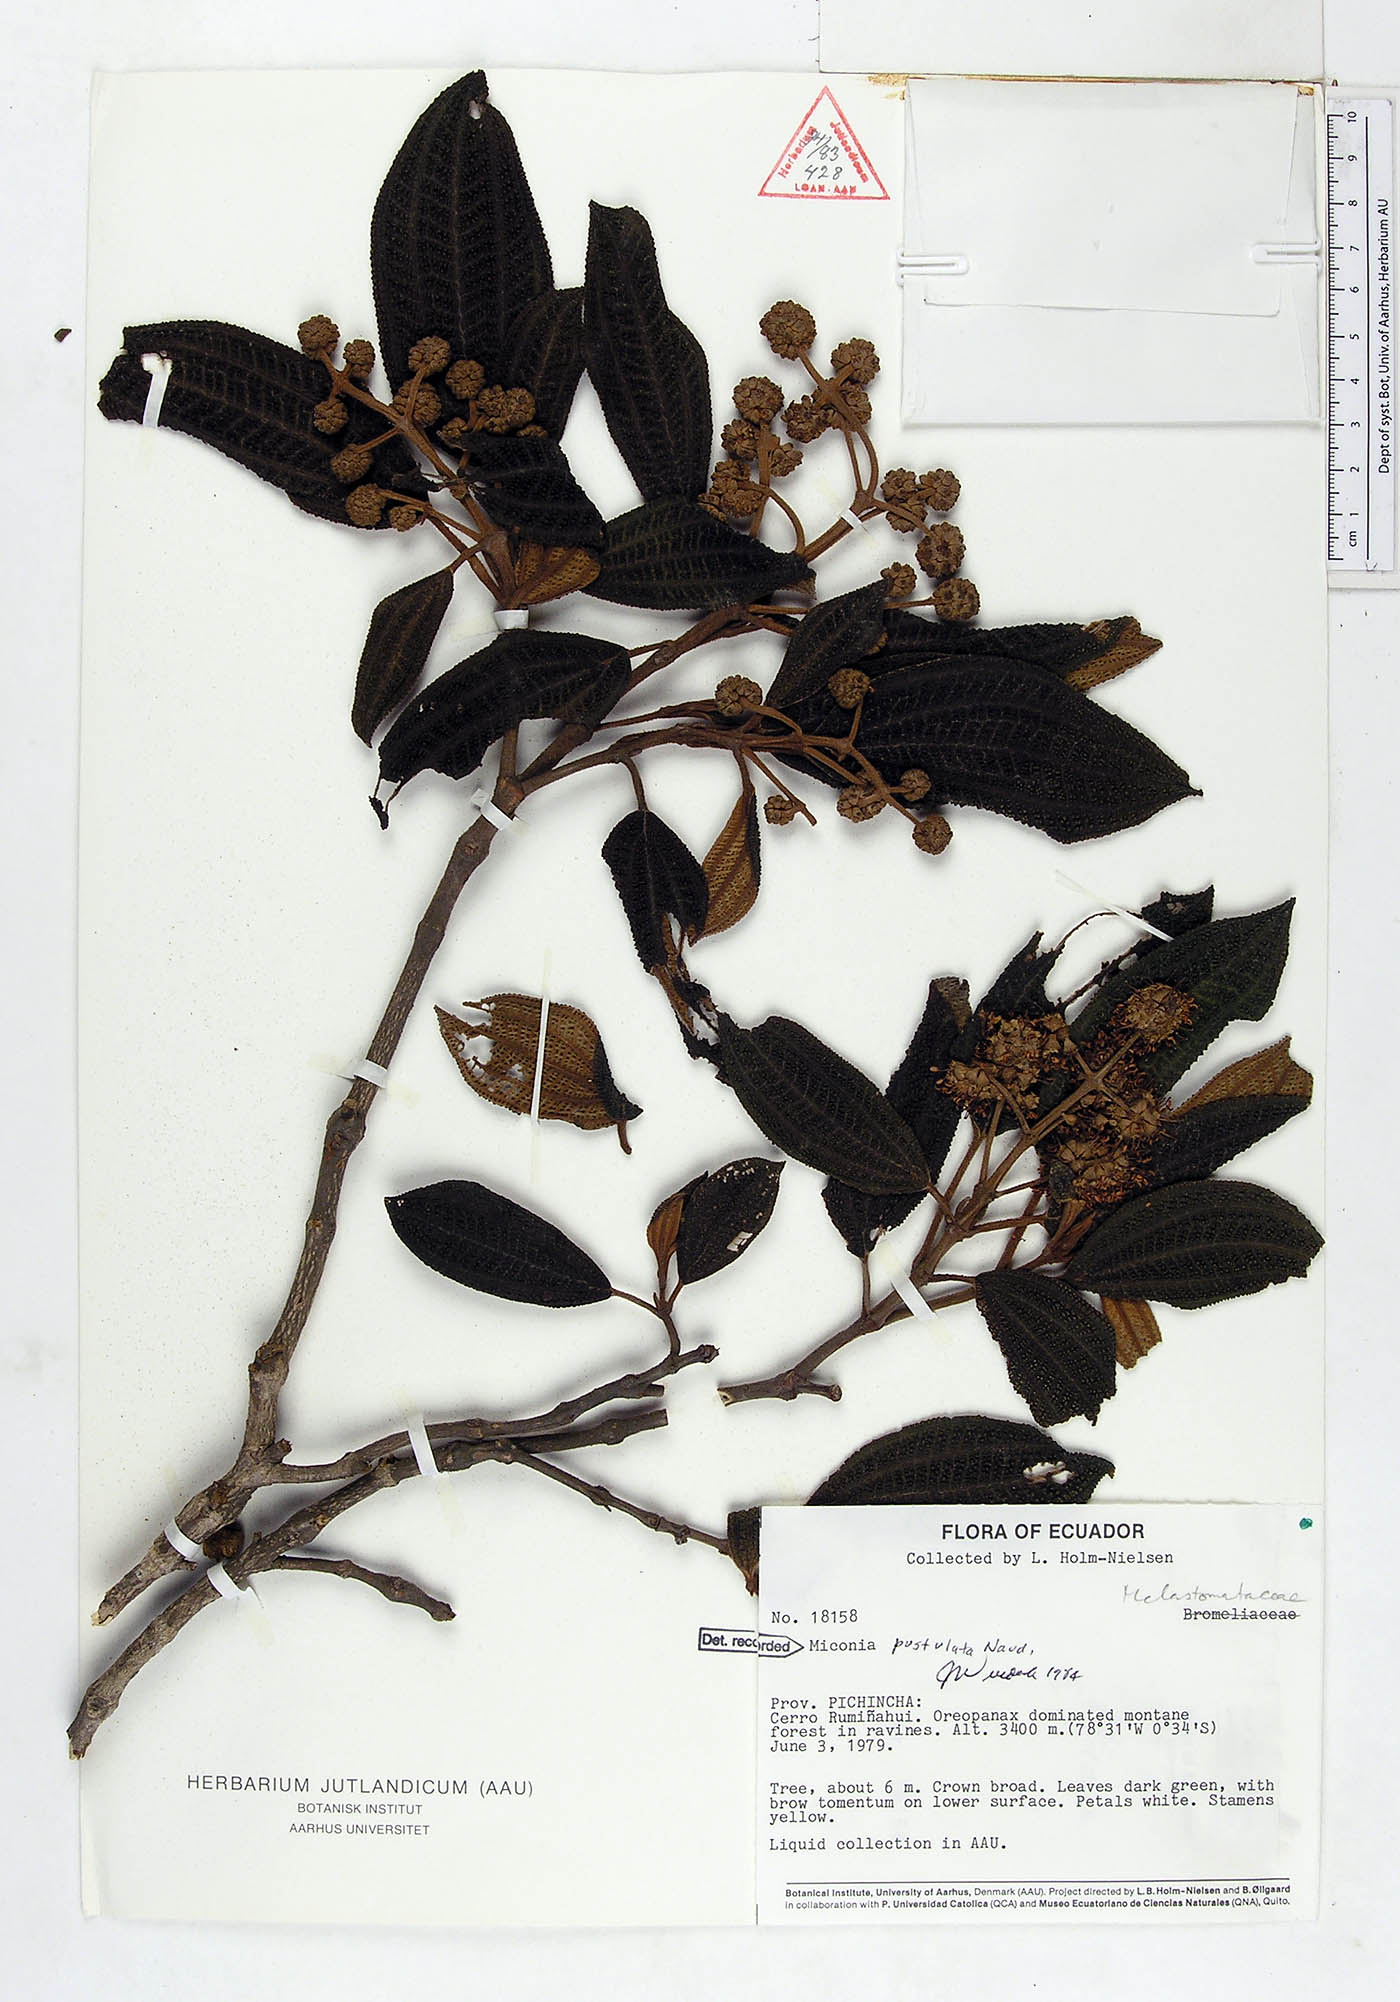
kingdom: Plantae
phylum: Tracheophyta
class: Magnoliopsida
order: Myrtales
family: Melastomataceae
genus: Miconia
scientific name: Miconia pustulata
